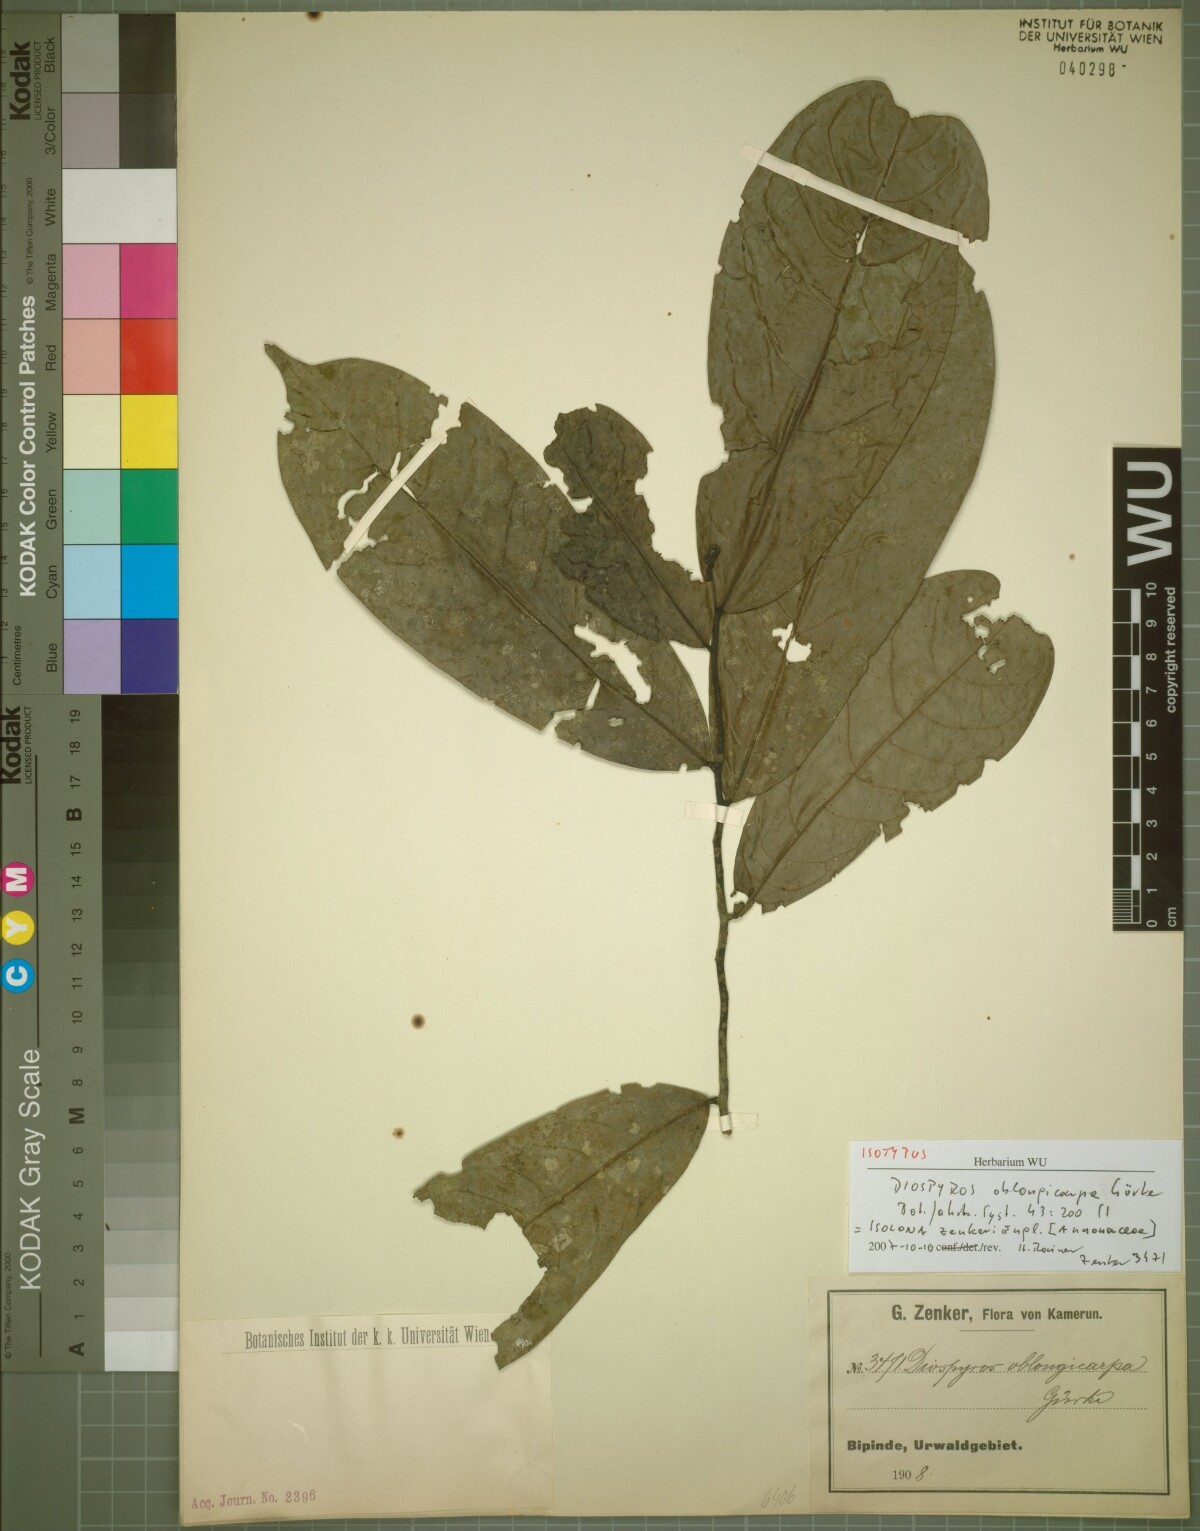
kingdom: Plantae
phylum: Tracheophyta
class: Magnoliopsida
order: Magnoliales
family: Annonaceae
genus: Isolona
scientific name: Isolona zenkeri
